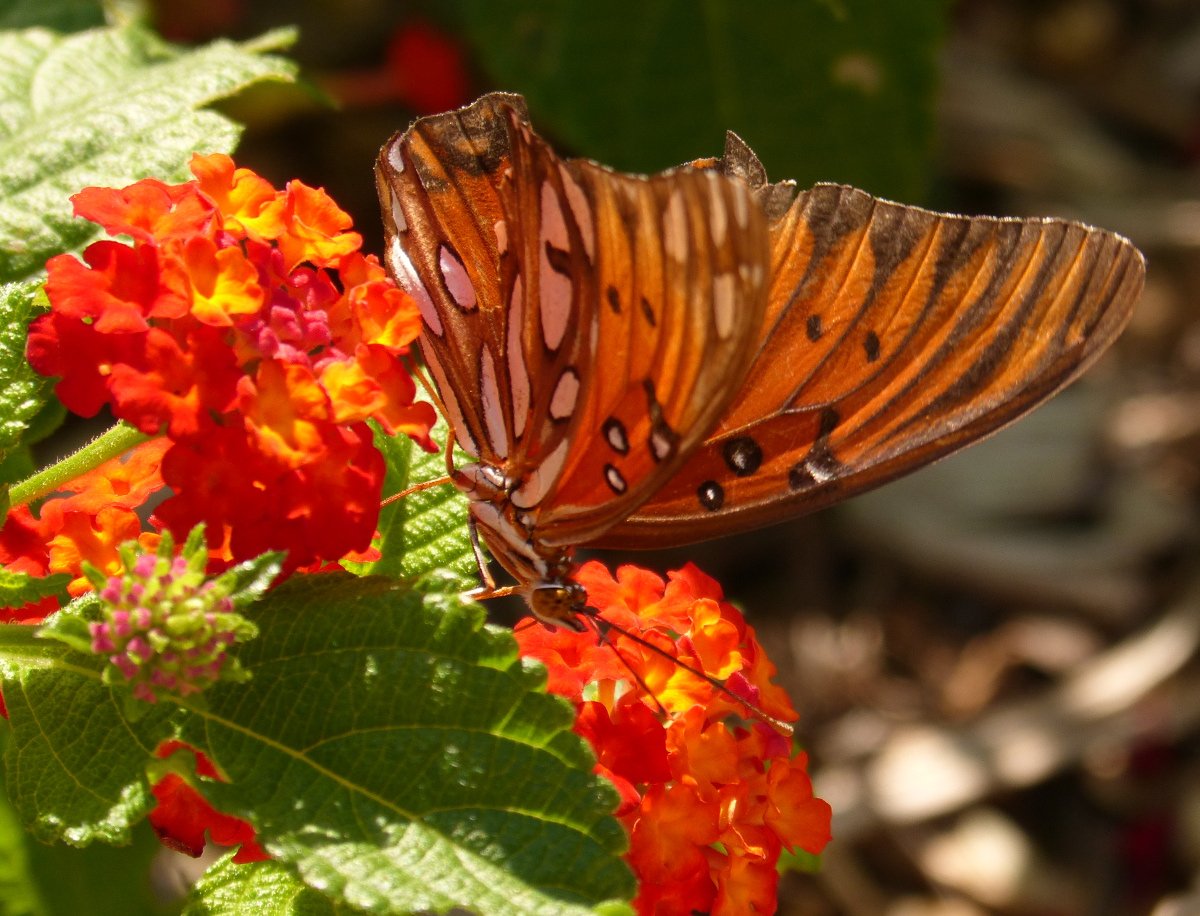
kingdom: Animalia
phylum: Arthropoda
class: Insecta
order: Lepidoptera
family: Nymphalidae
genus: Dione
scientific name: Dione vanillae
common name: Gulf Fritillary
